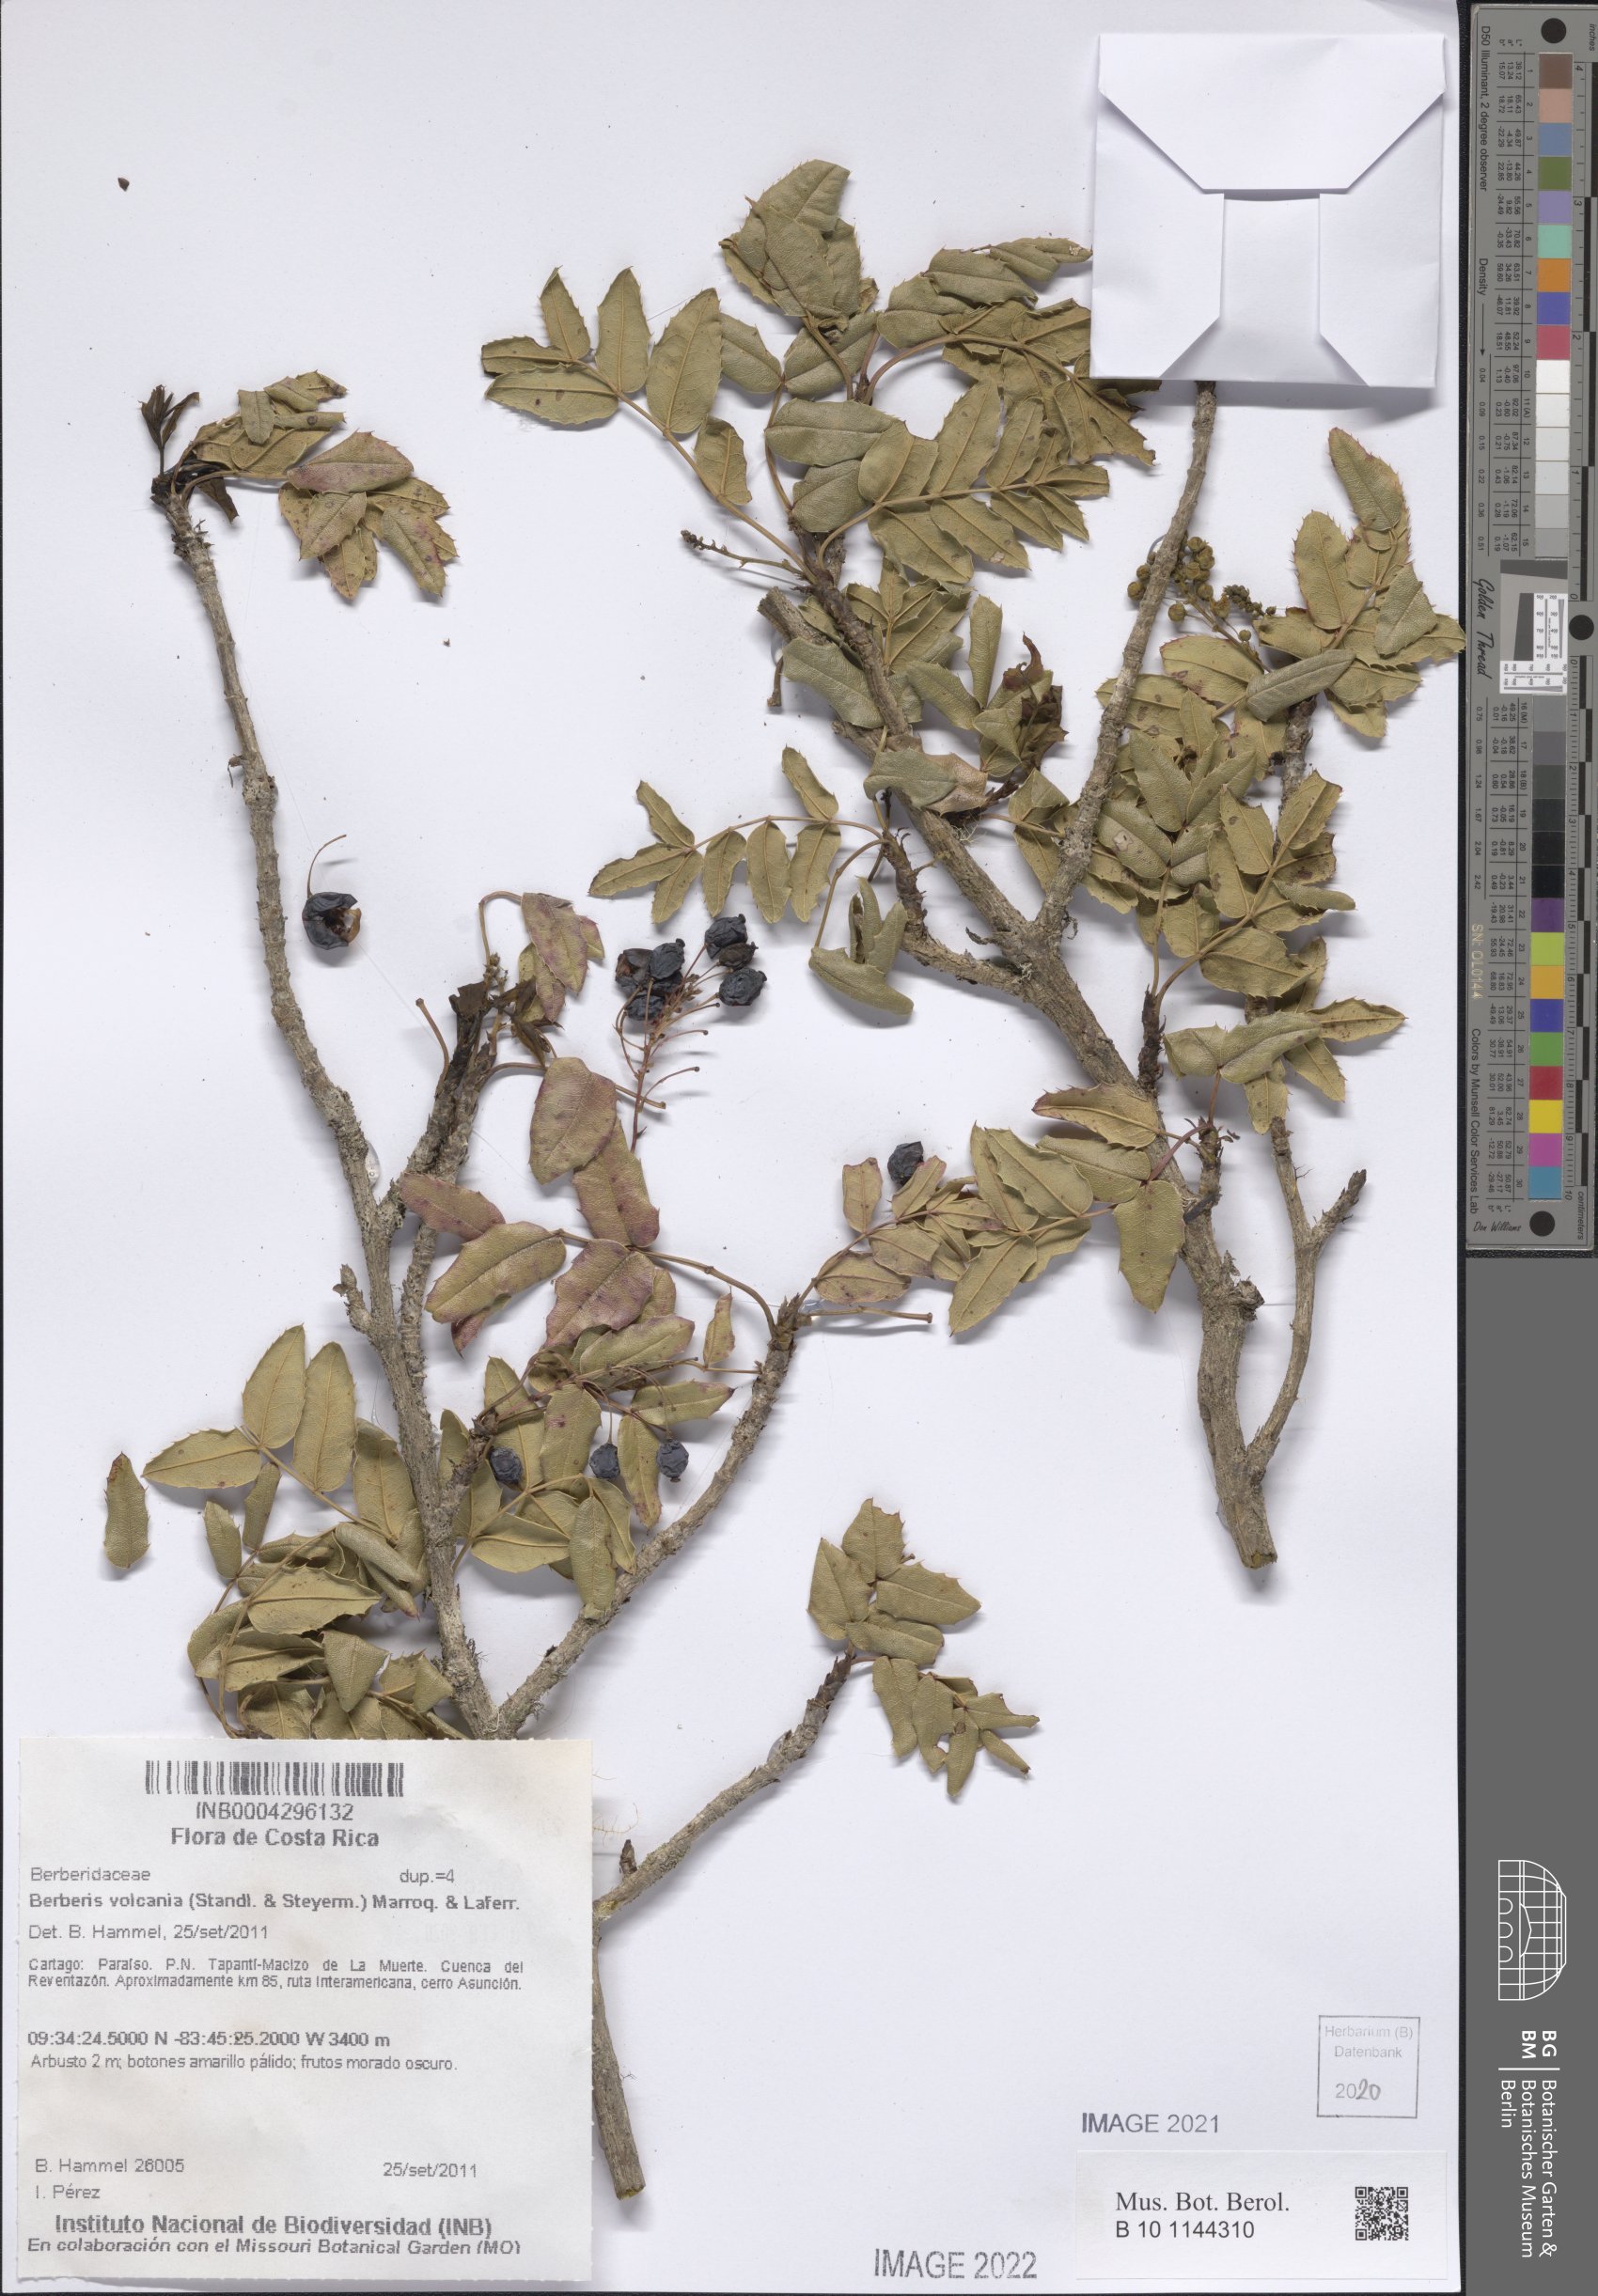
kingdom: Plantae
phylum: Tracheophyta
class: Magnoliopsida
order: Ranunculales
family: Berberidaceae
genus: Mahonia
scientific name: Mahonia volcania
